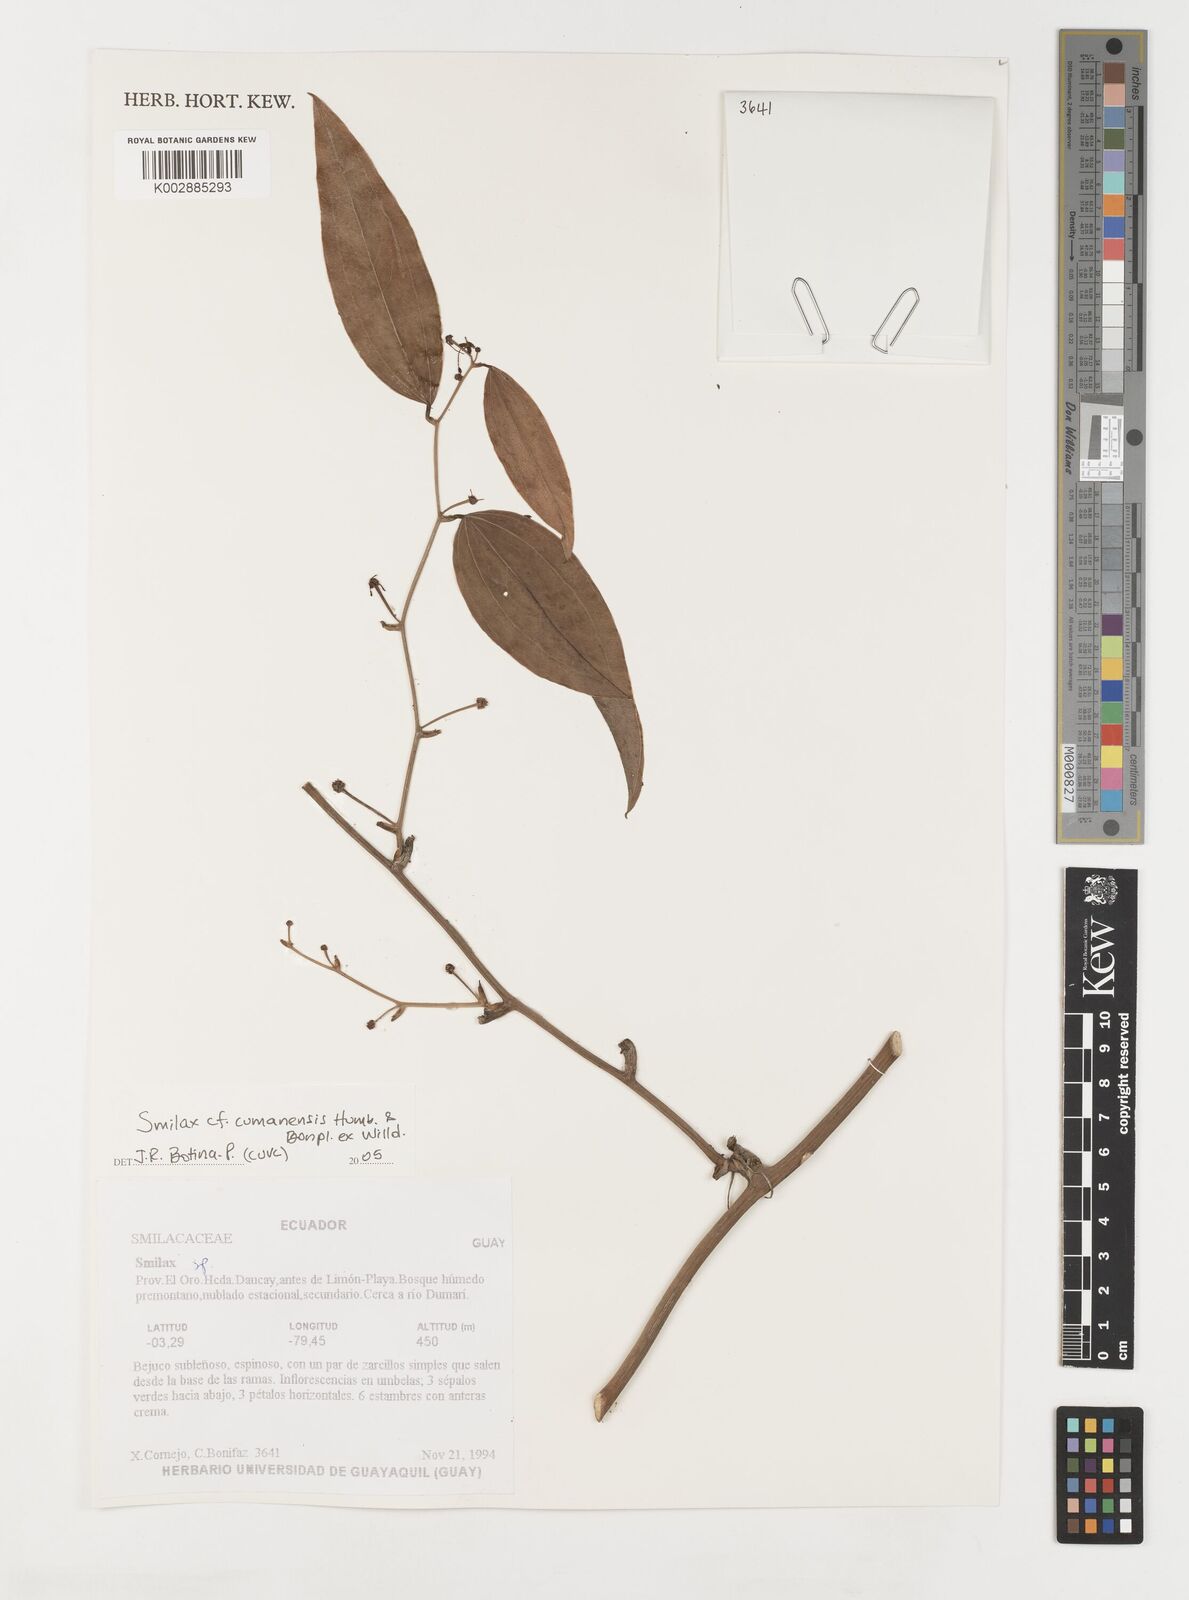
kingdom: Plantae
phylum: Tracheophyta
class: Liliopsida
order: Liliales
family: Smilacaceae
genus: Smilax
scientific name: Smilax oblongata
